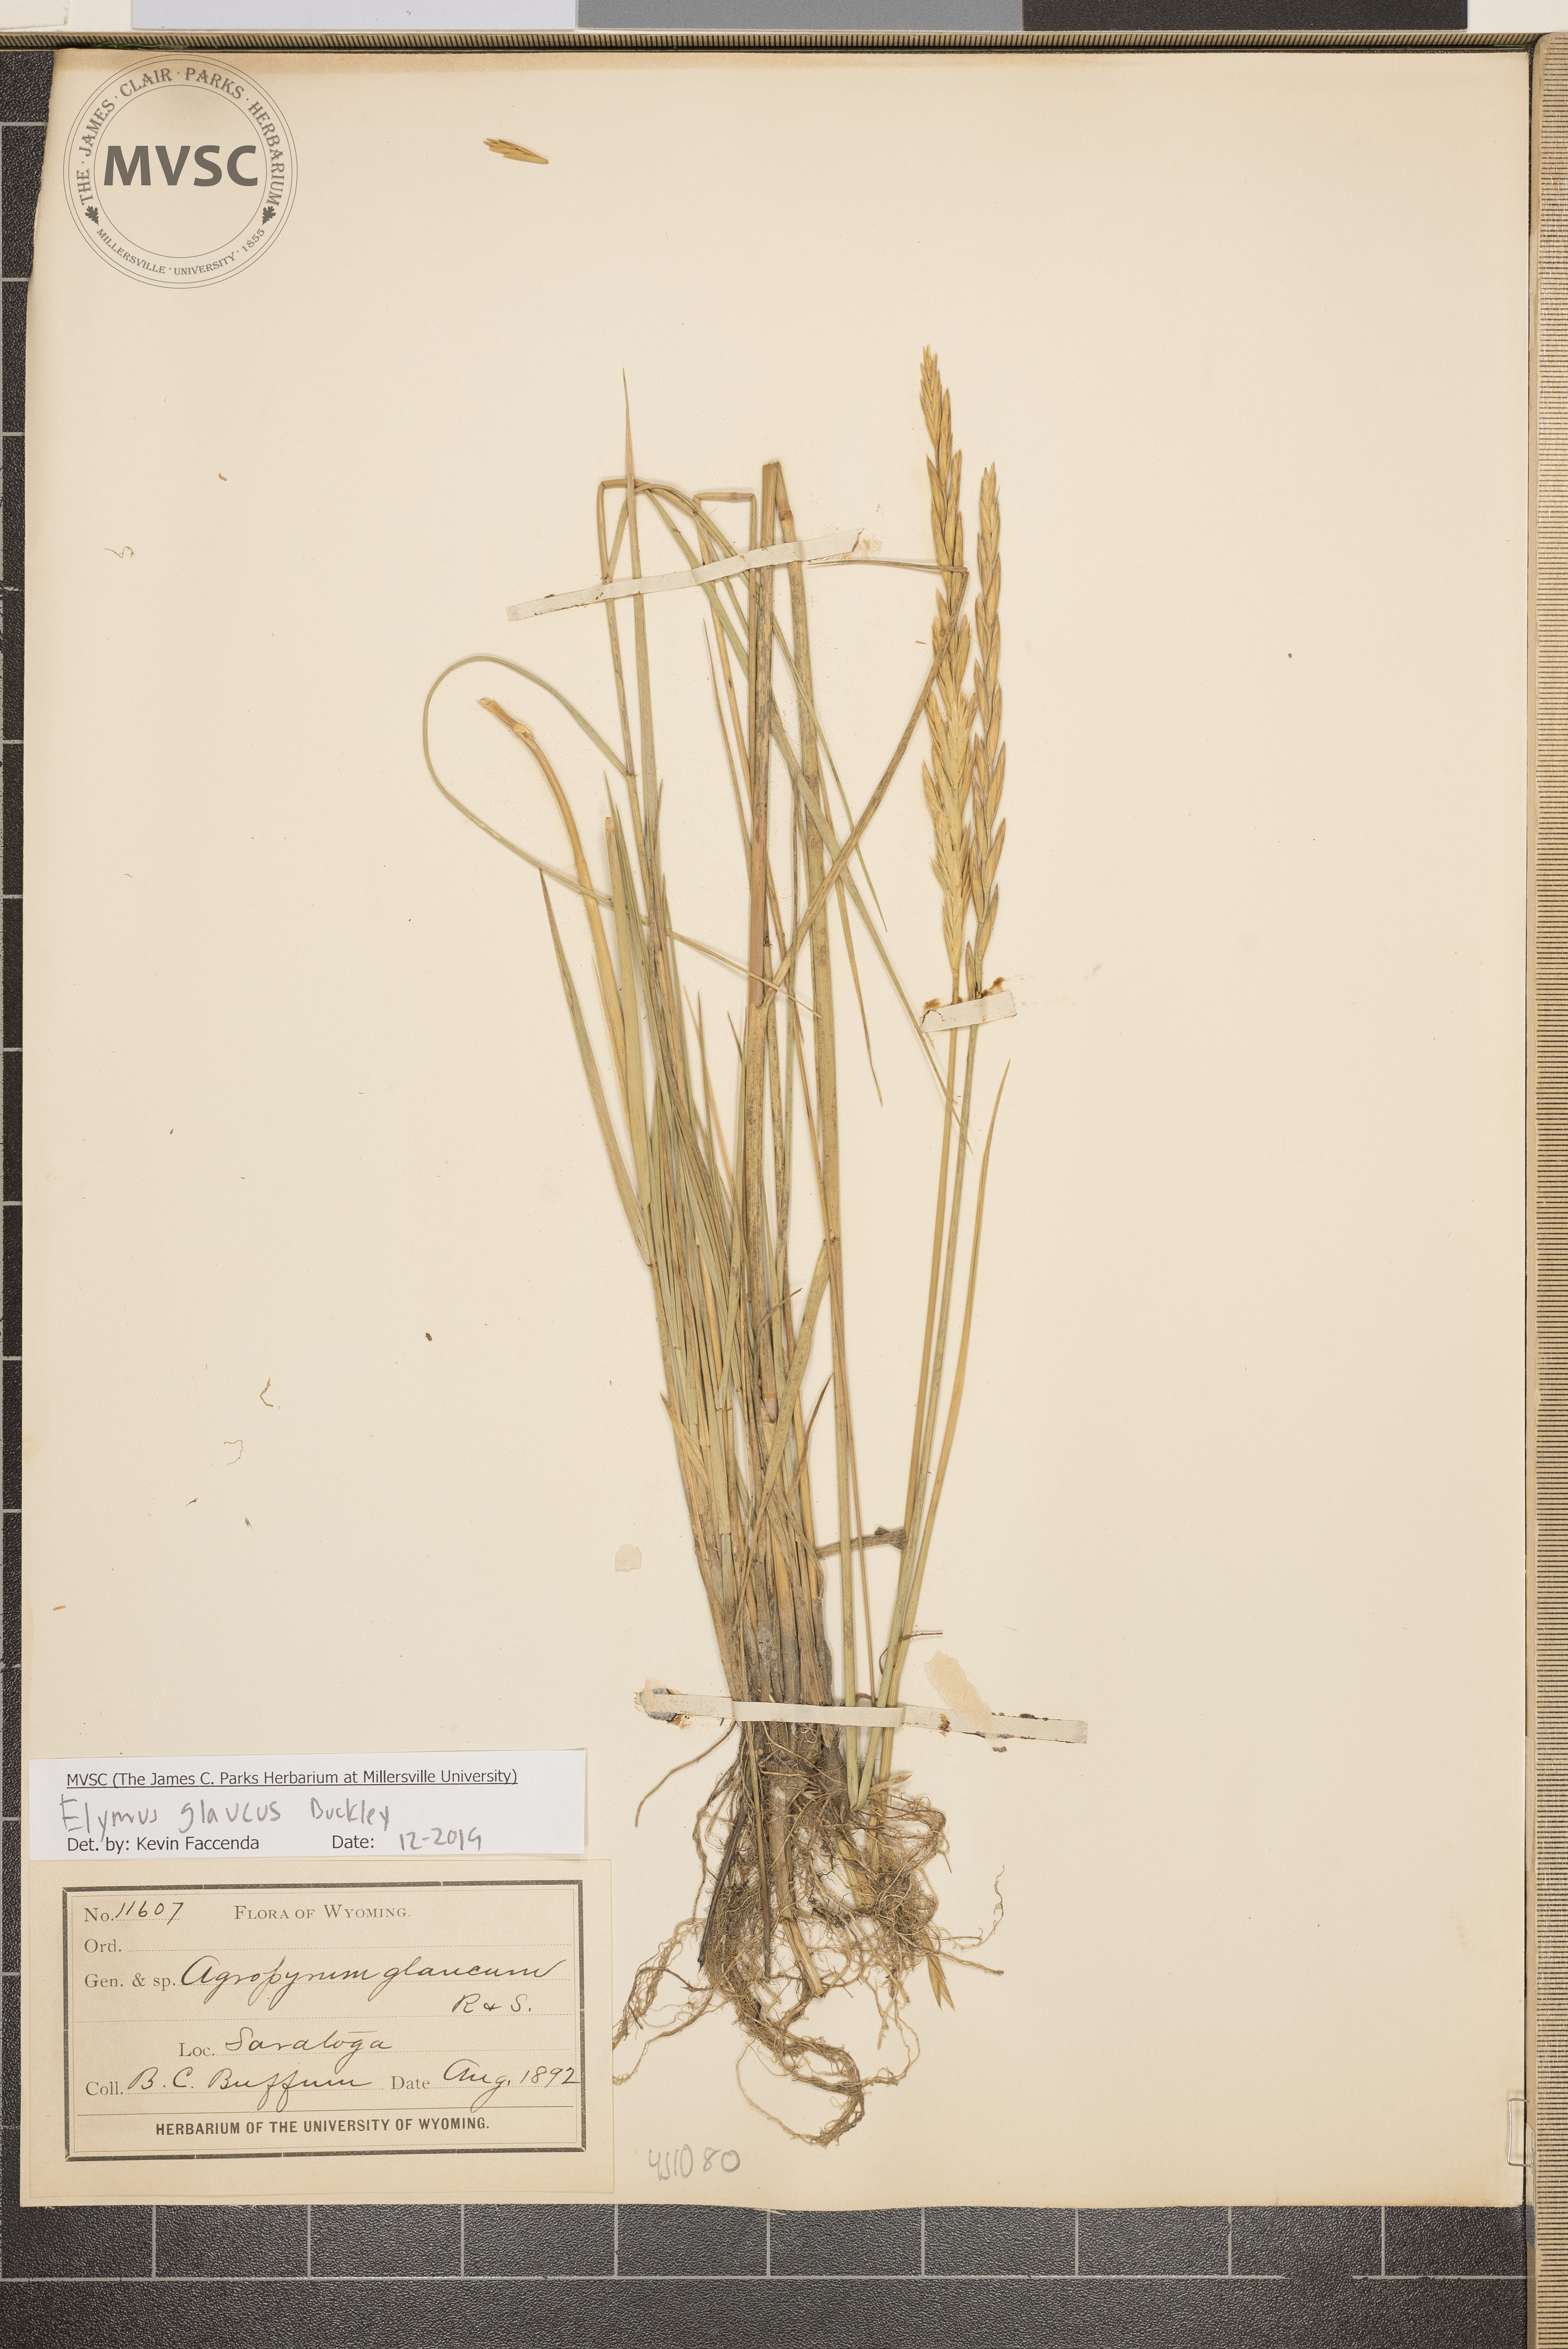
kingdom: Plantae
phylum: Tracheophyta
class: Liliopsida
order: Poales
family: Poaceae
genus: Elymus
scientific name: Elymus glaucus
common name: Blue wild rye
